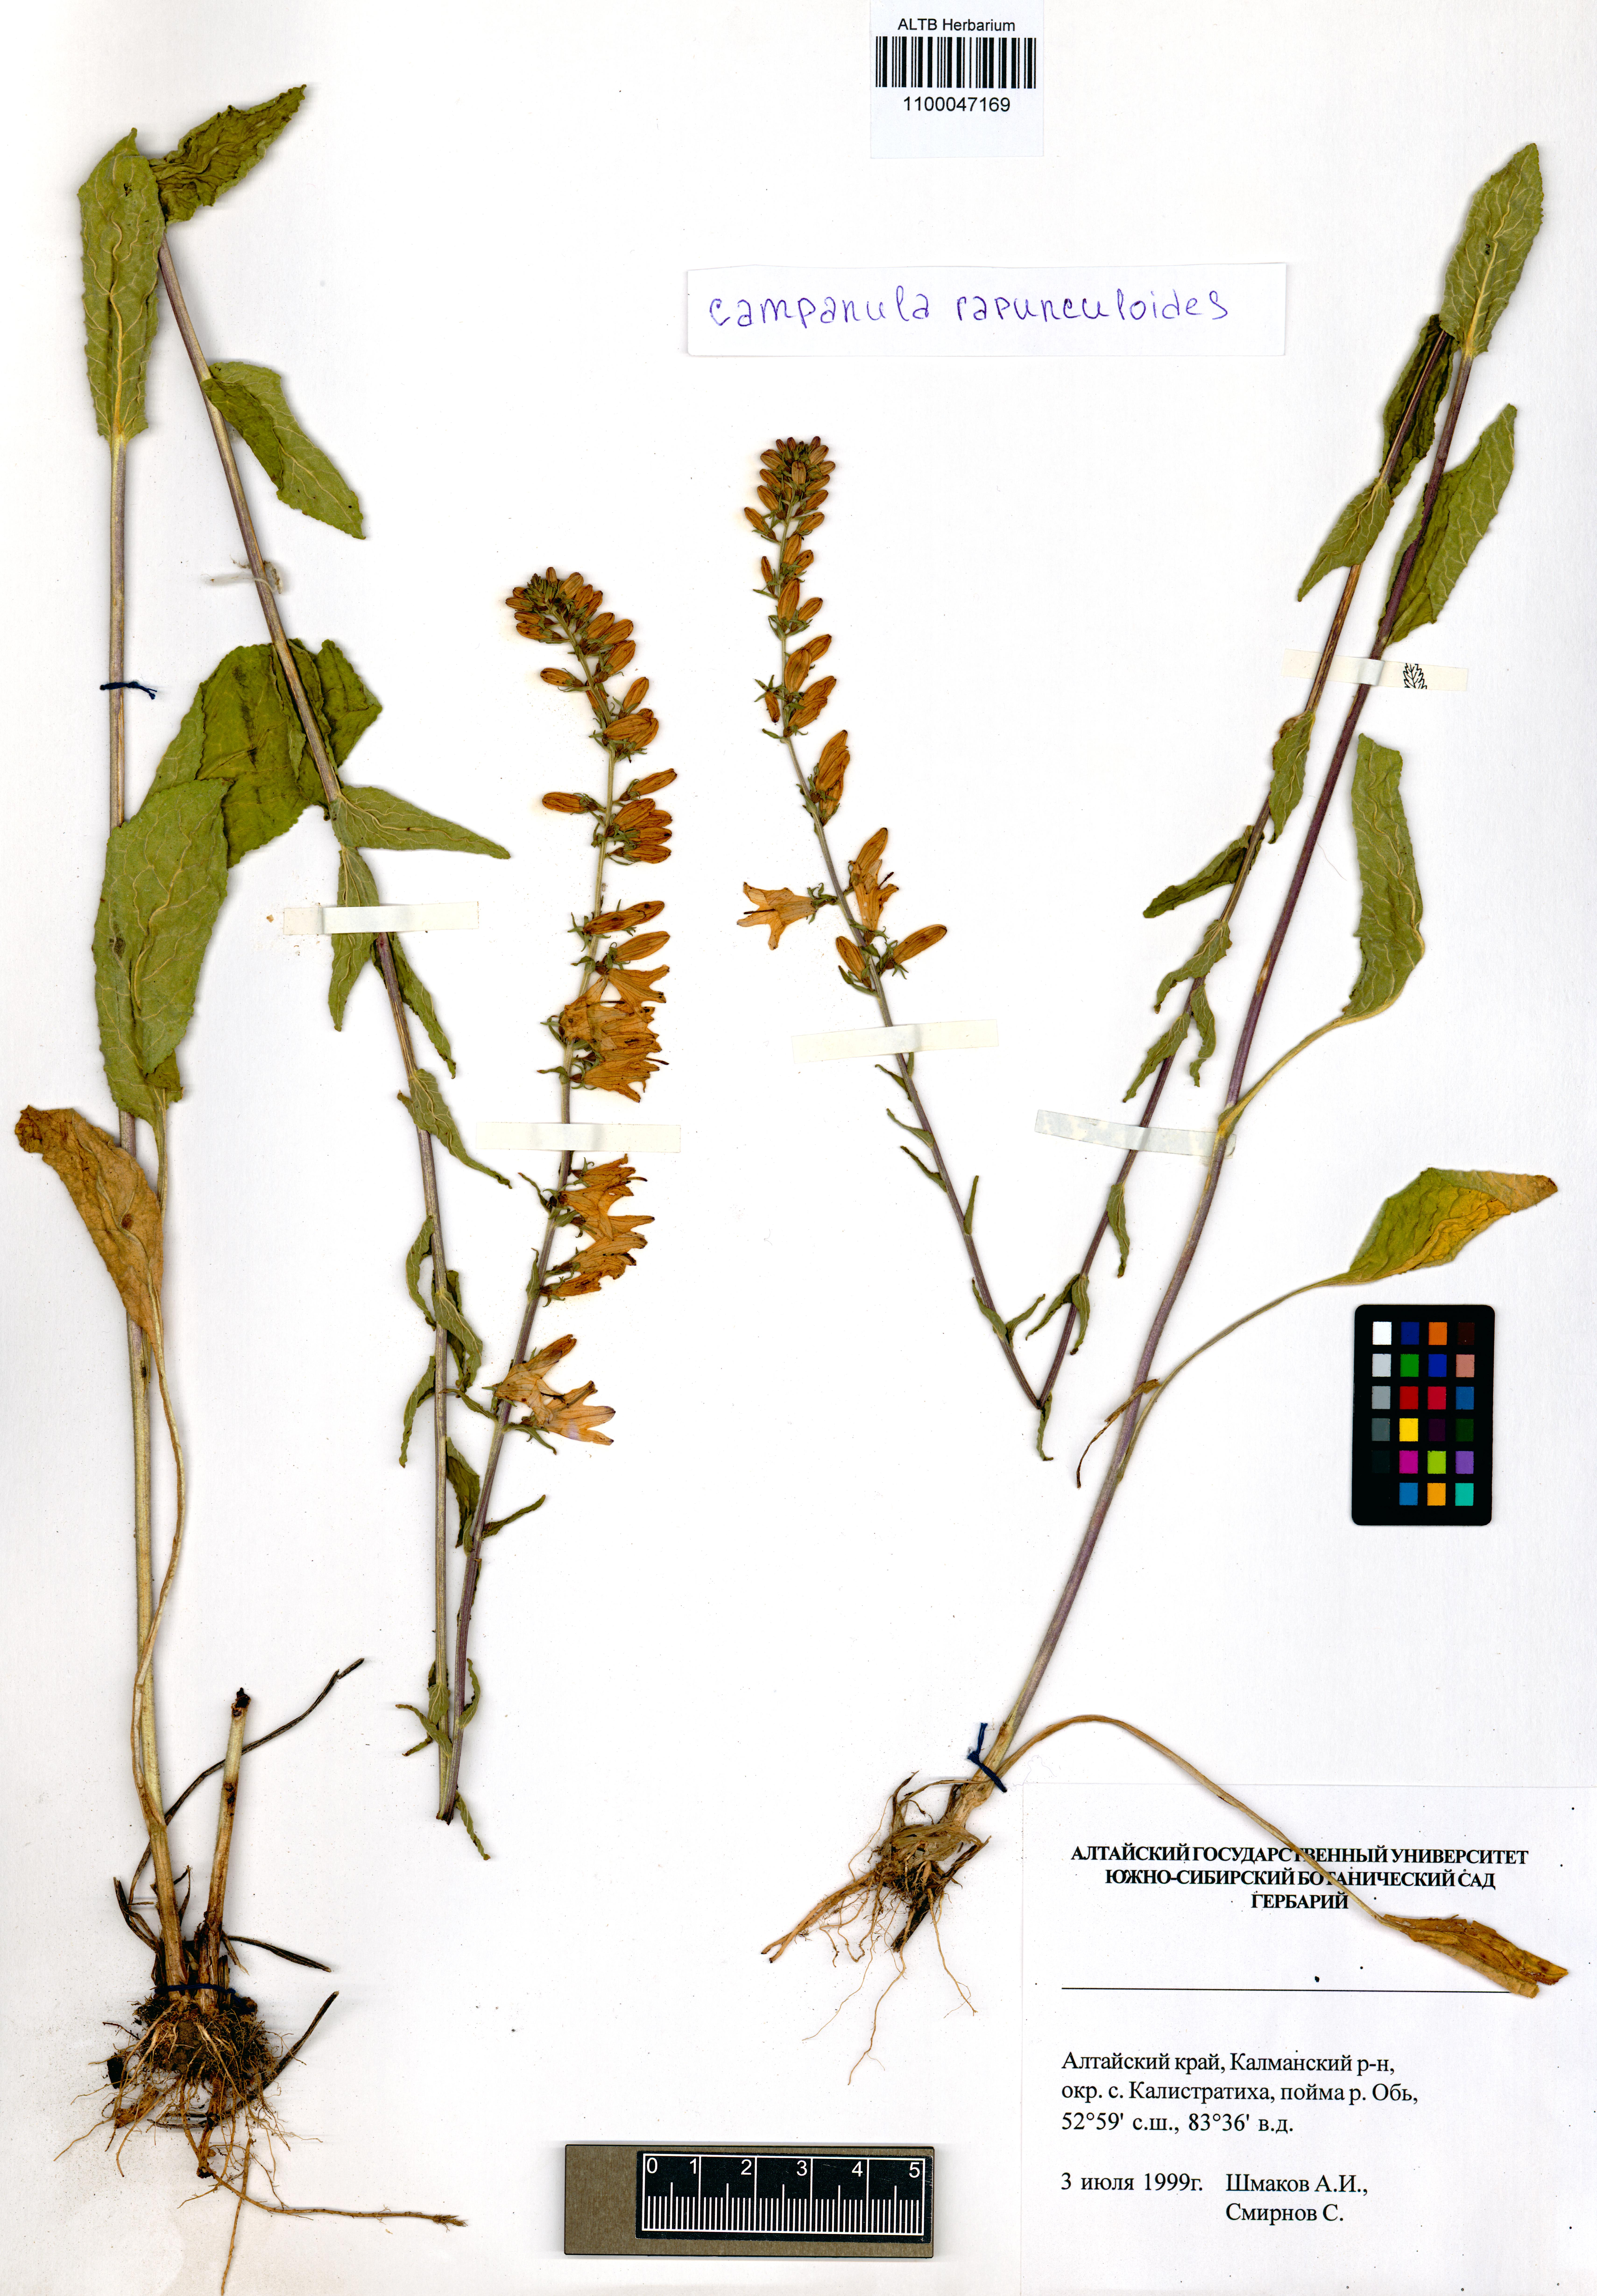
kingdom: Plantae
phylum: Tracheophyta
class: Magnoliopsida
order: Asterales
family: Campanulaceae
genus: Campanula
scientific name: Campanula rapunculoides
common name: Creeping bellflower
